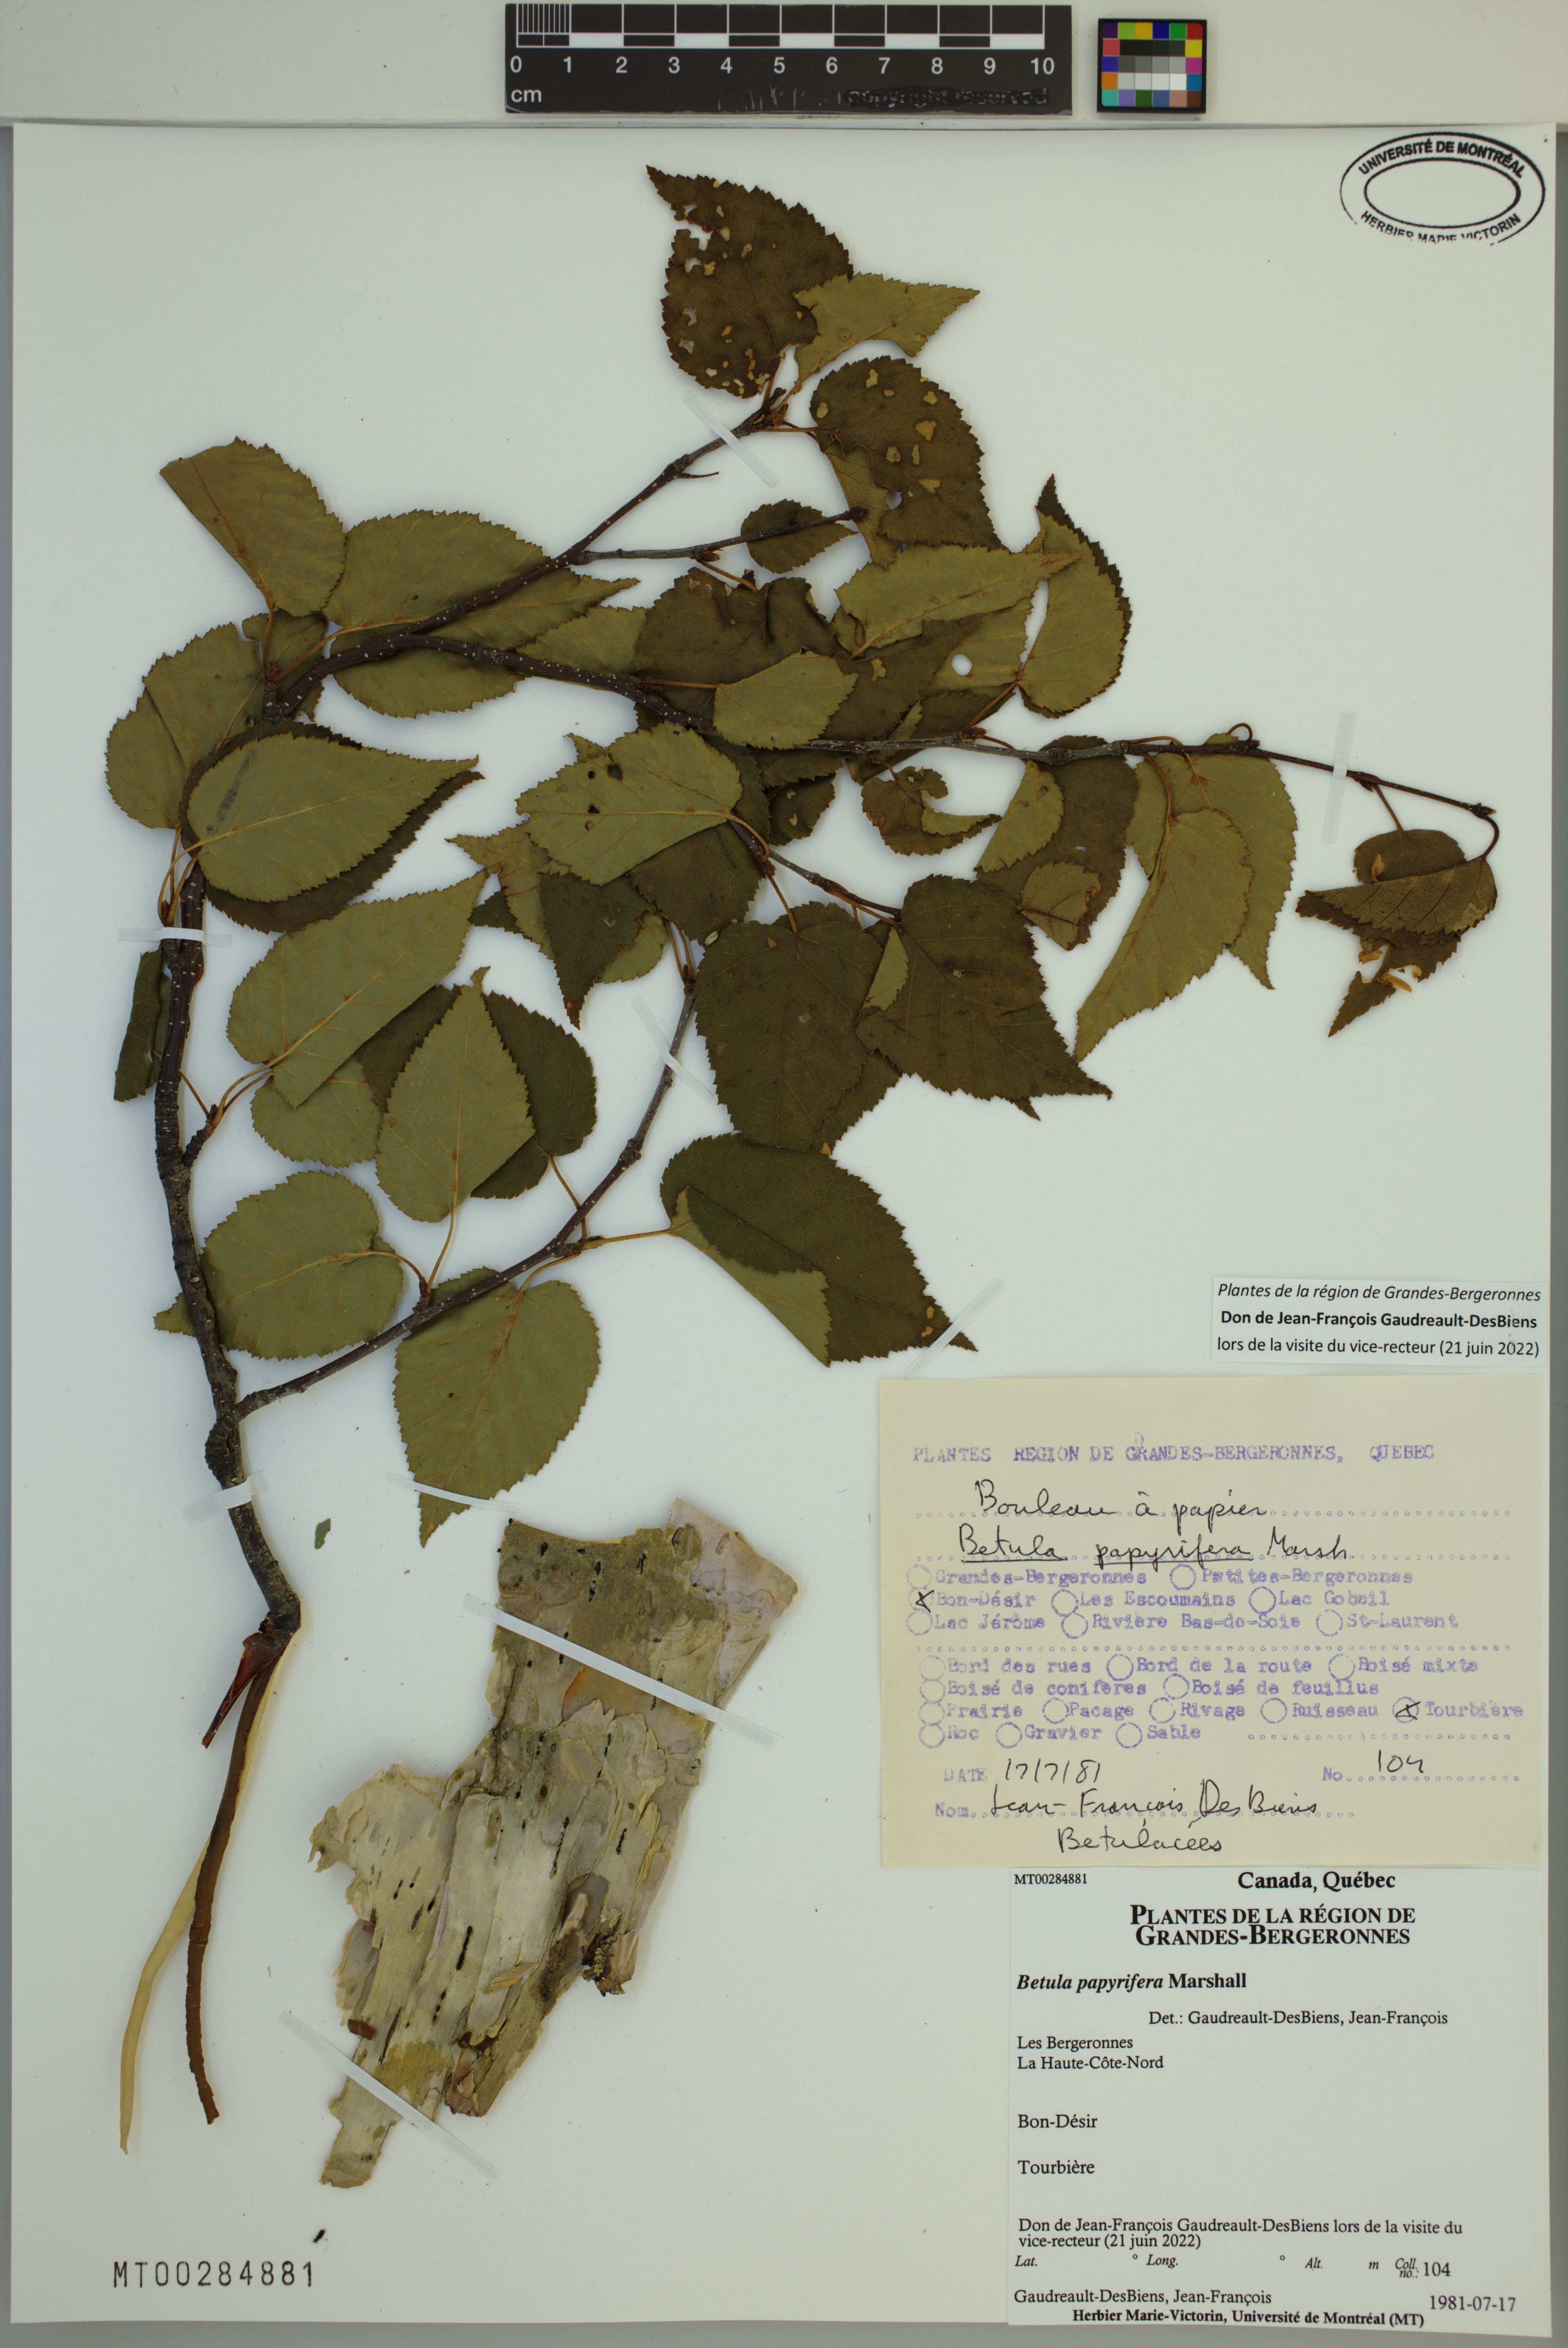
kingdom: Plantae
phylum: Tracheophyta
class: Magnoliopsida
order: Fagales
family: Betulaceae
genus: Betula
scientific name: Betula papyrifera
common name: Paper birch
